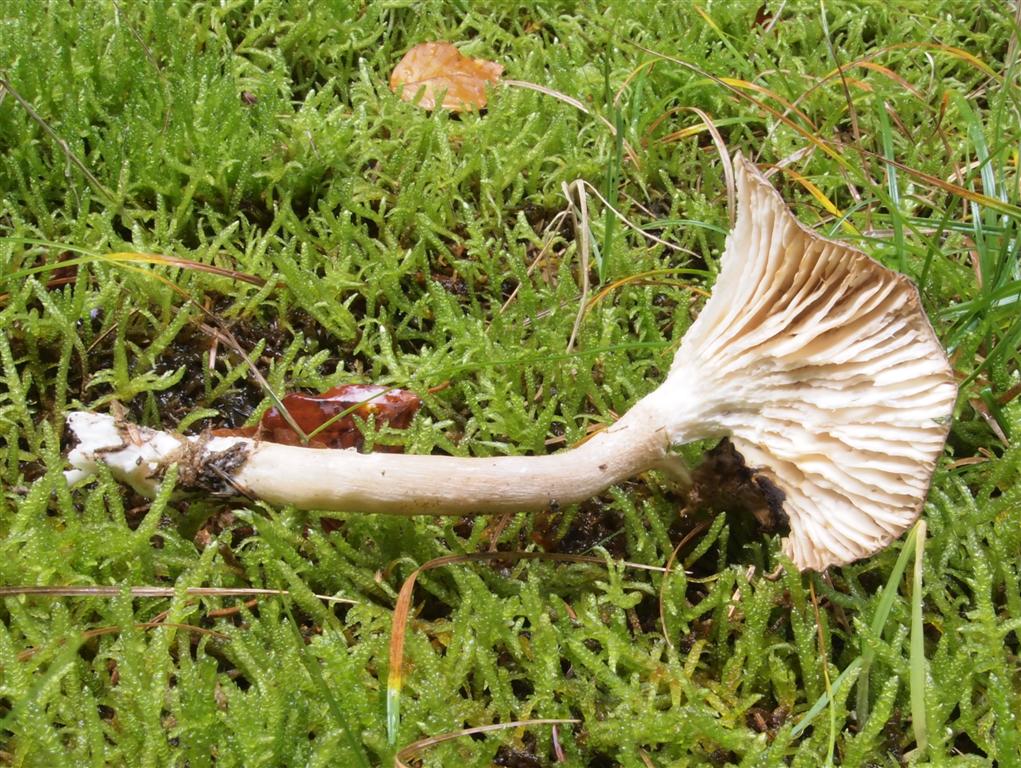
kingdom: Fungi
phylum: Basidiomycota
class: Agaricomycetes
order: Agaricales
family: Hygrophoraceae
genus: Hygrophorus
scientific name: Hygrophorus agathosmus
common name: vellugtende sneglehat
